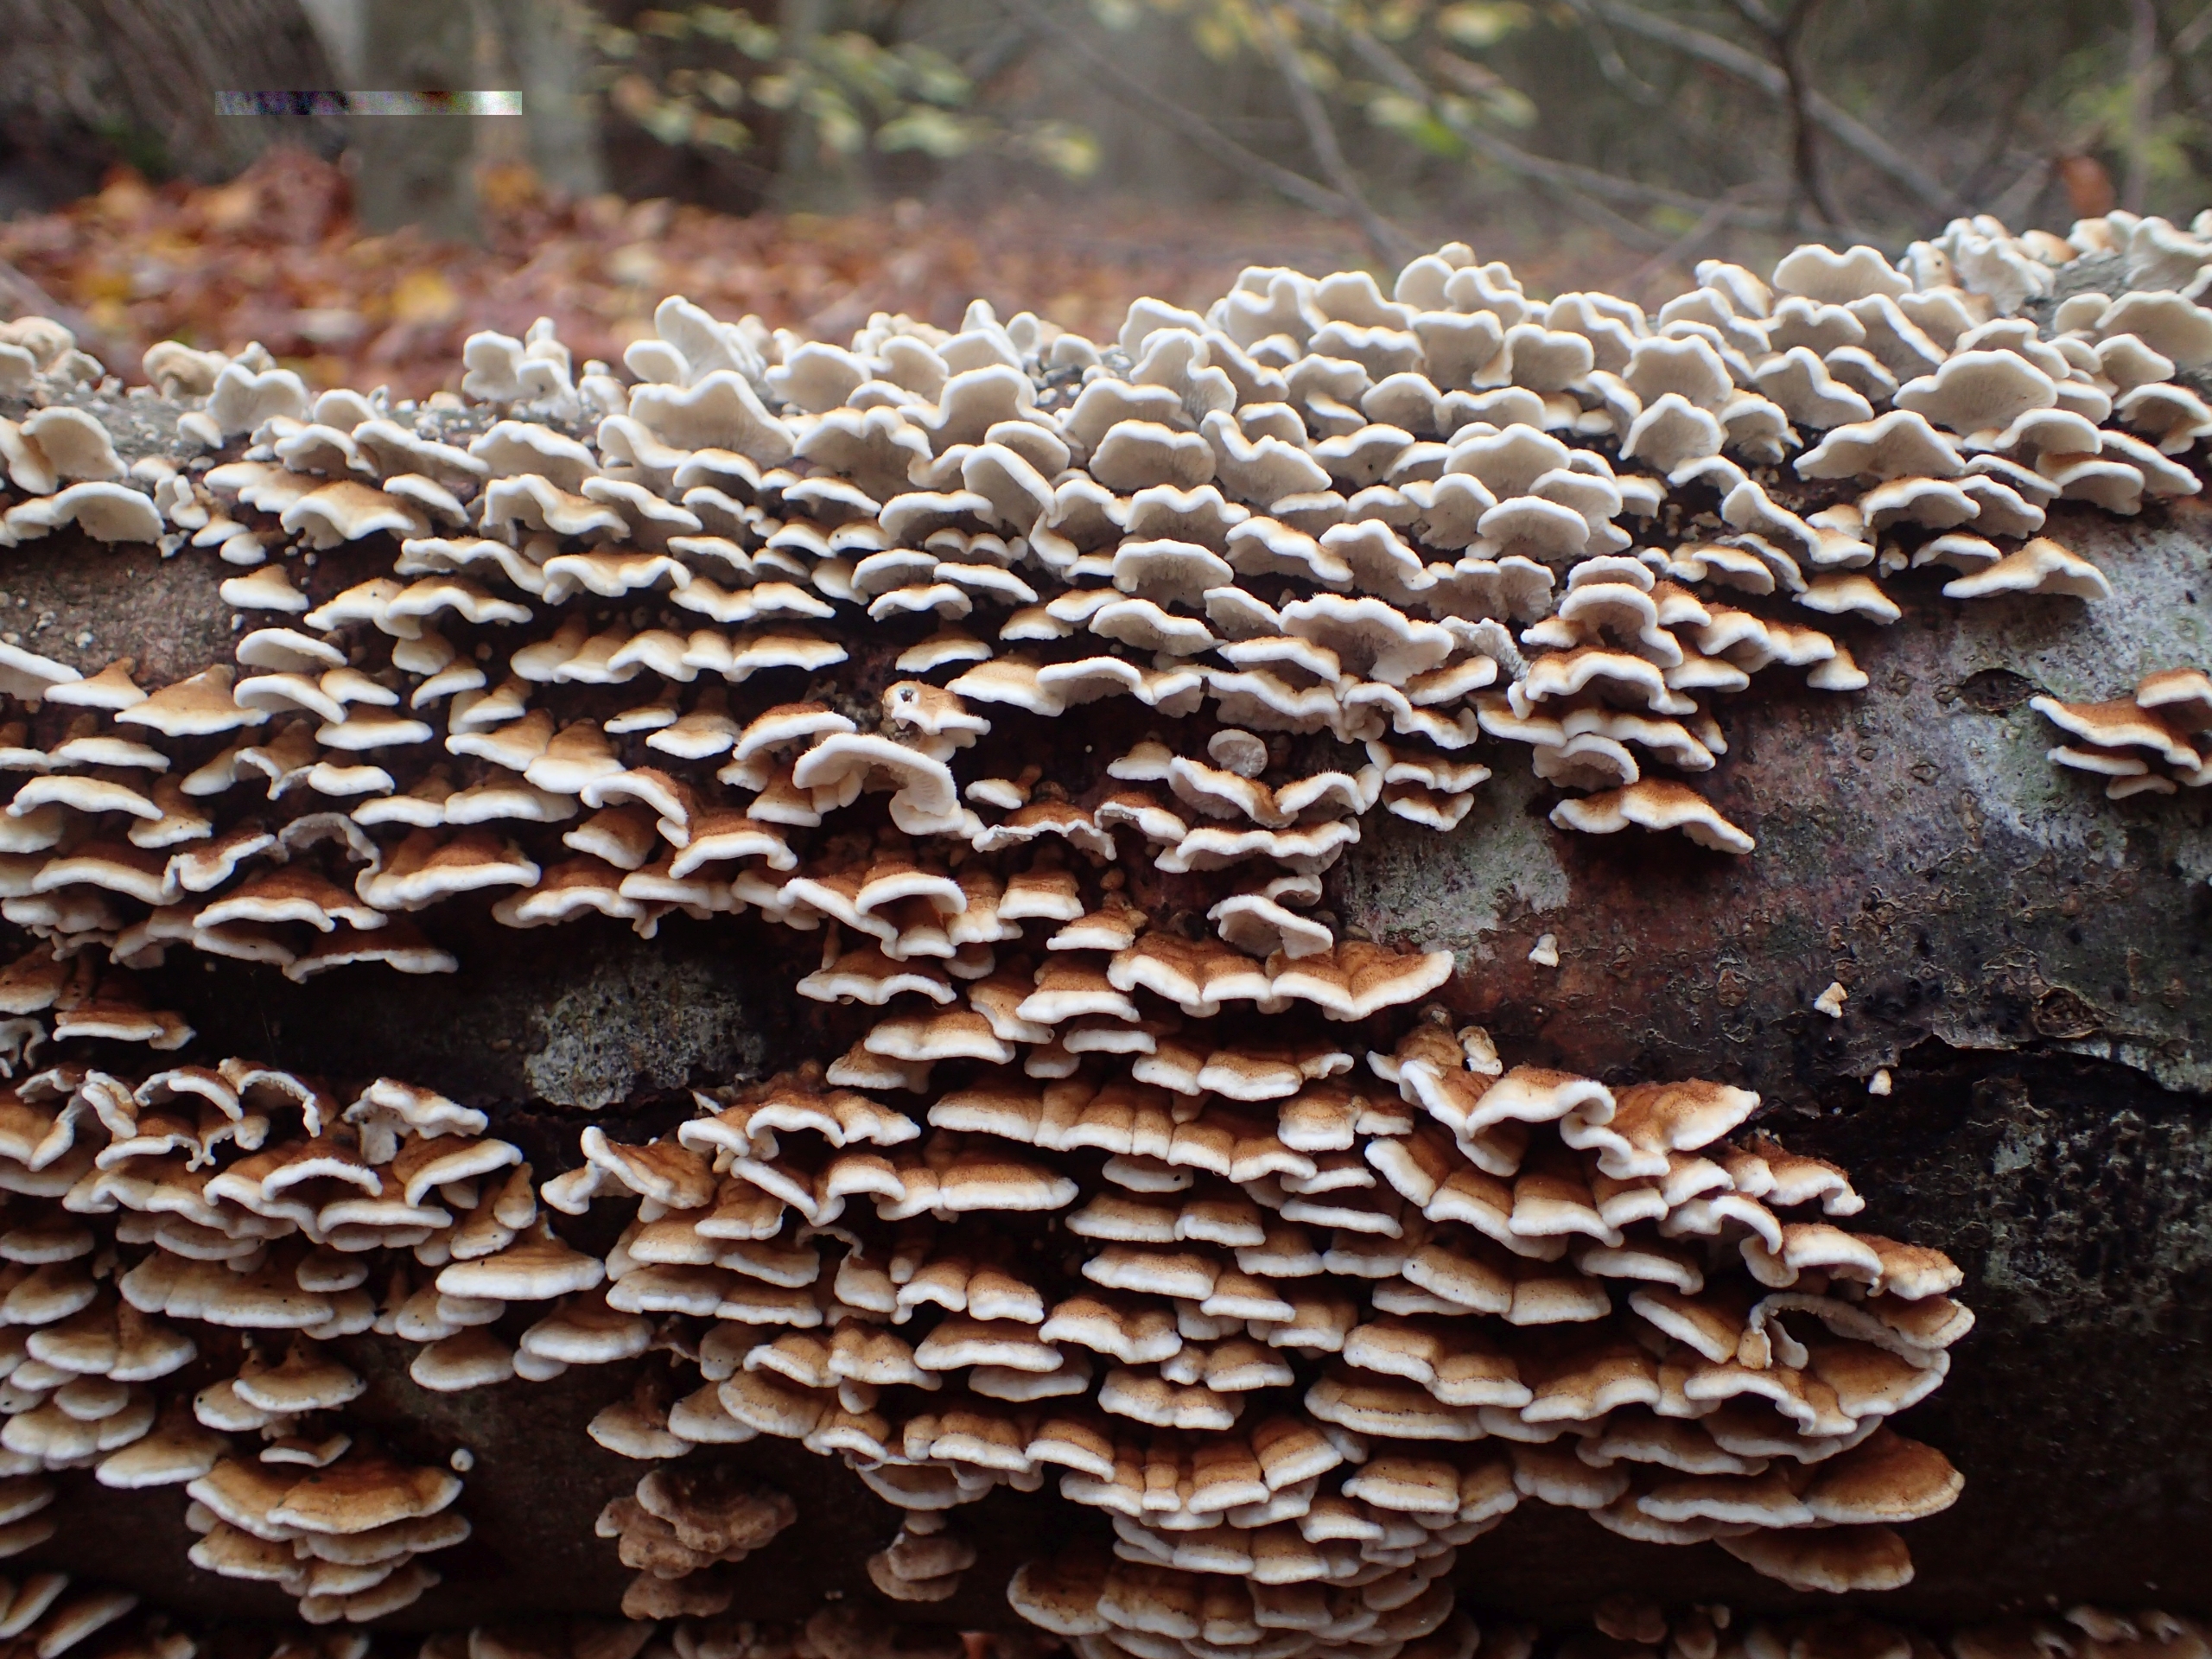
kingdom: Fungi
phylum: Basidiomycota
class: Agaricomycetes
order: Amylocorticiales
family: Amylocorticiaceae
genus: Plicaturopsis
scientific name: Plicaturopsis crispa
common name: Krusblad
